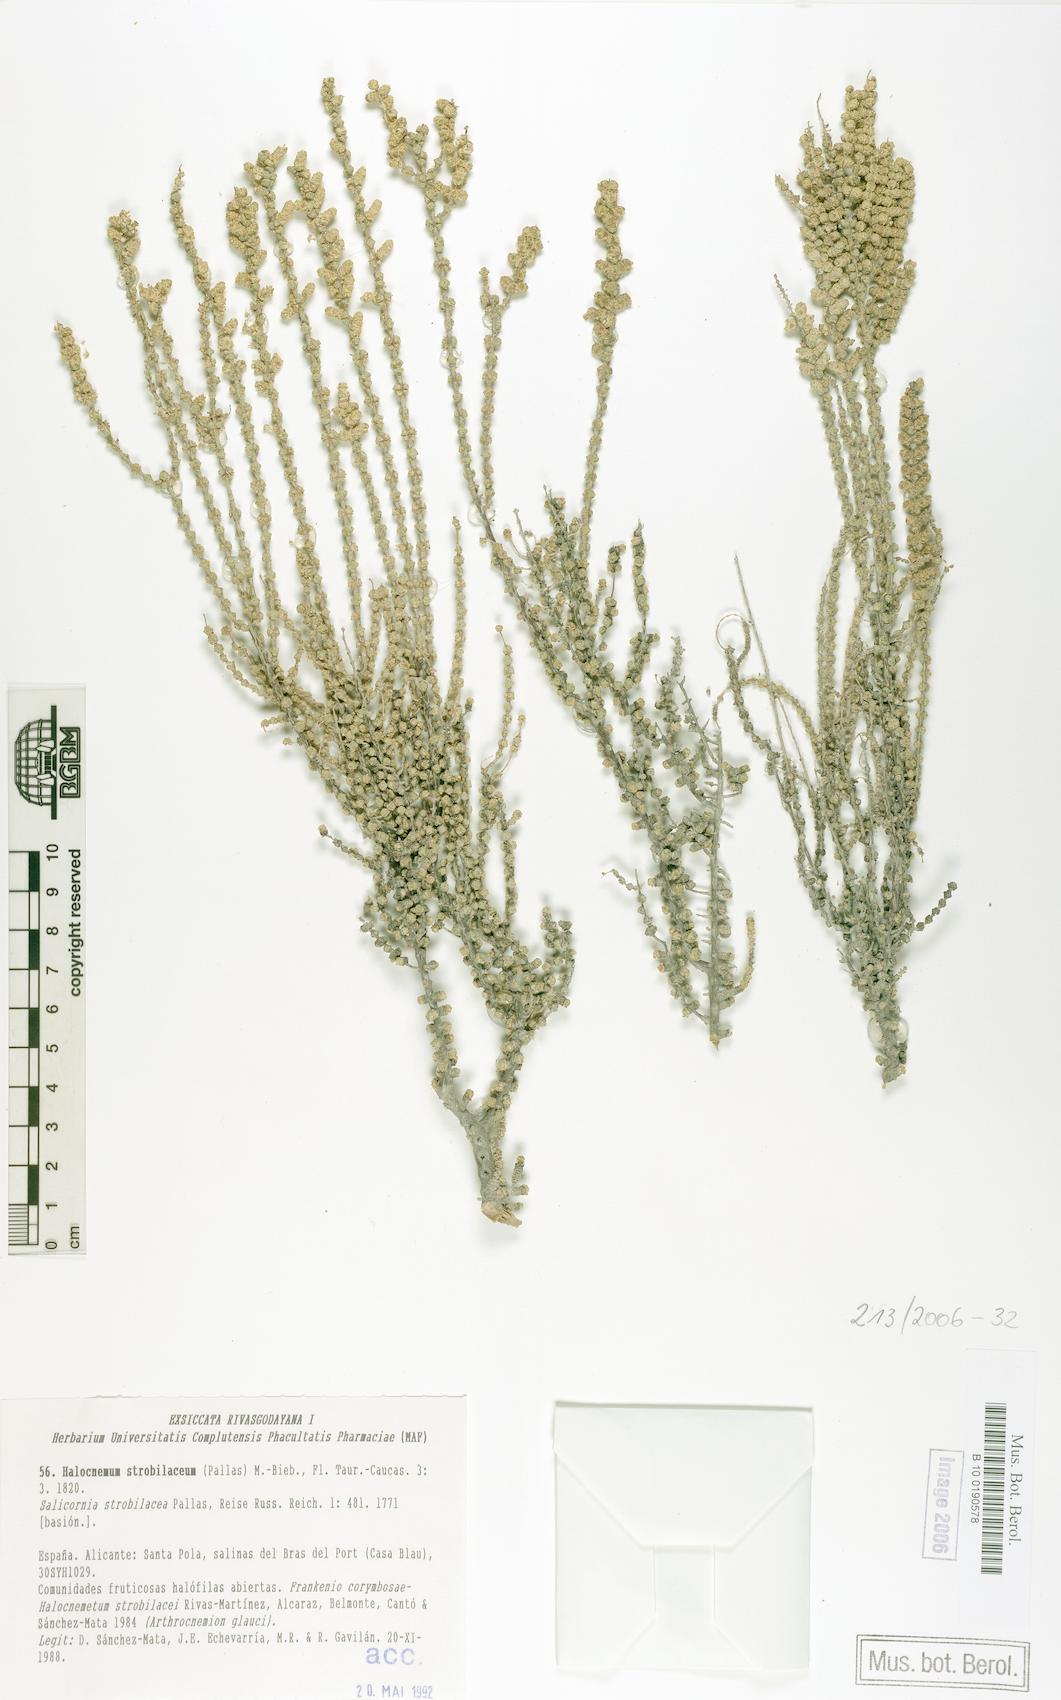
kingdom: Plantae
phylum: Tracheophyta
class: Magnoliopsida
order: Caryophyllales
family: Amaranthaceae
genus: Halocnemum
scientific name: Halocnemum strobilaceum
